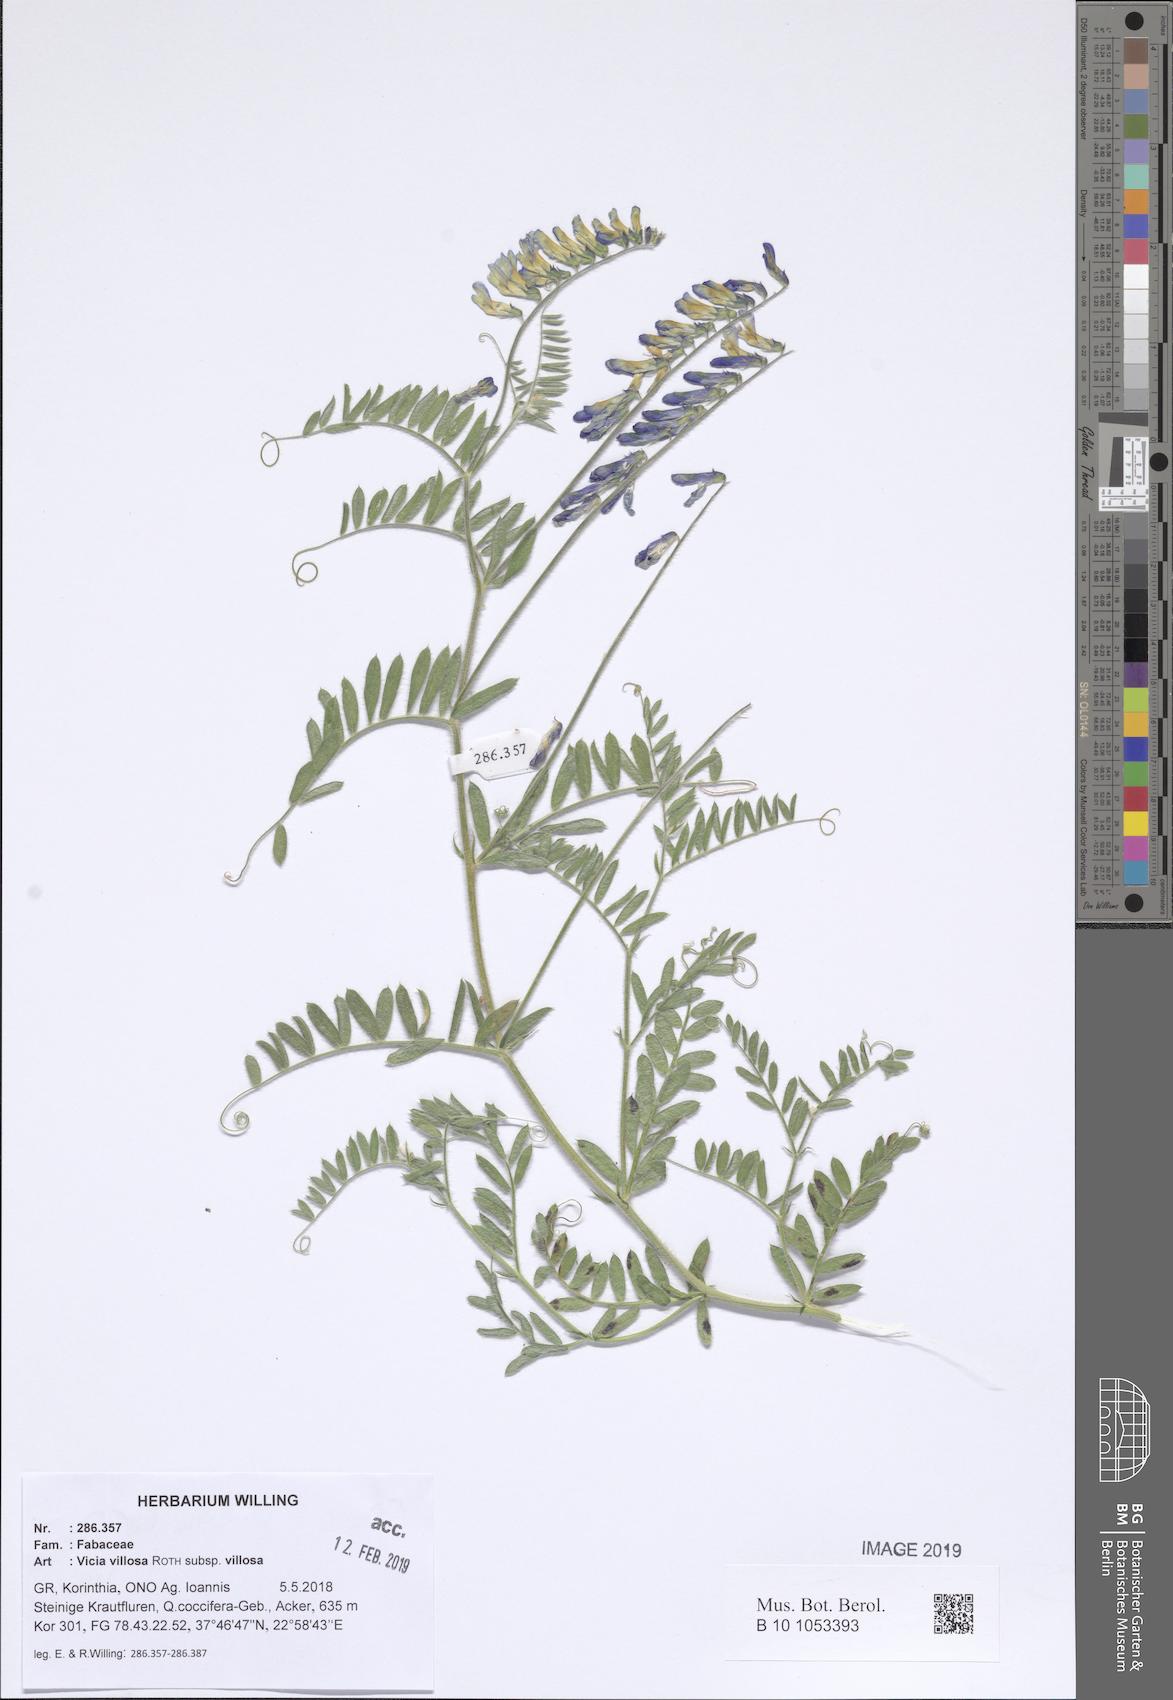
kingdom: Plantae
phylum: Tracheophyta
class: Magnoliopsida
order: Fabales
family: Fabaceae
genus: Vicia
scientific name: Vicia villosa
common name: Fodder vetch
